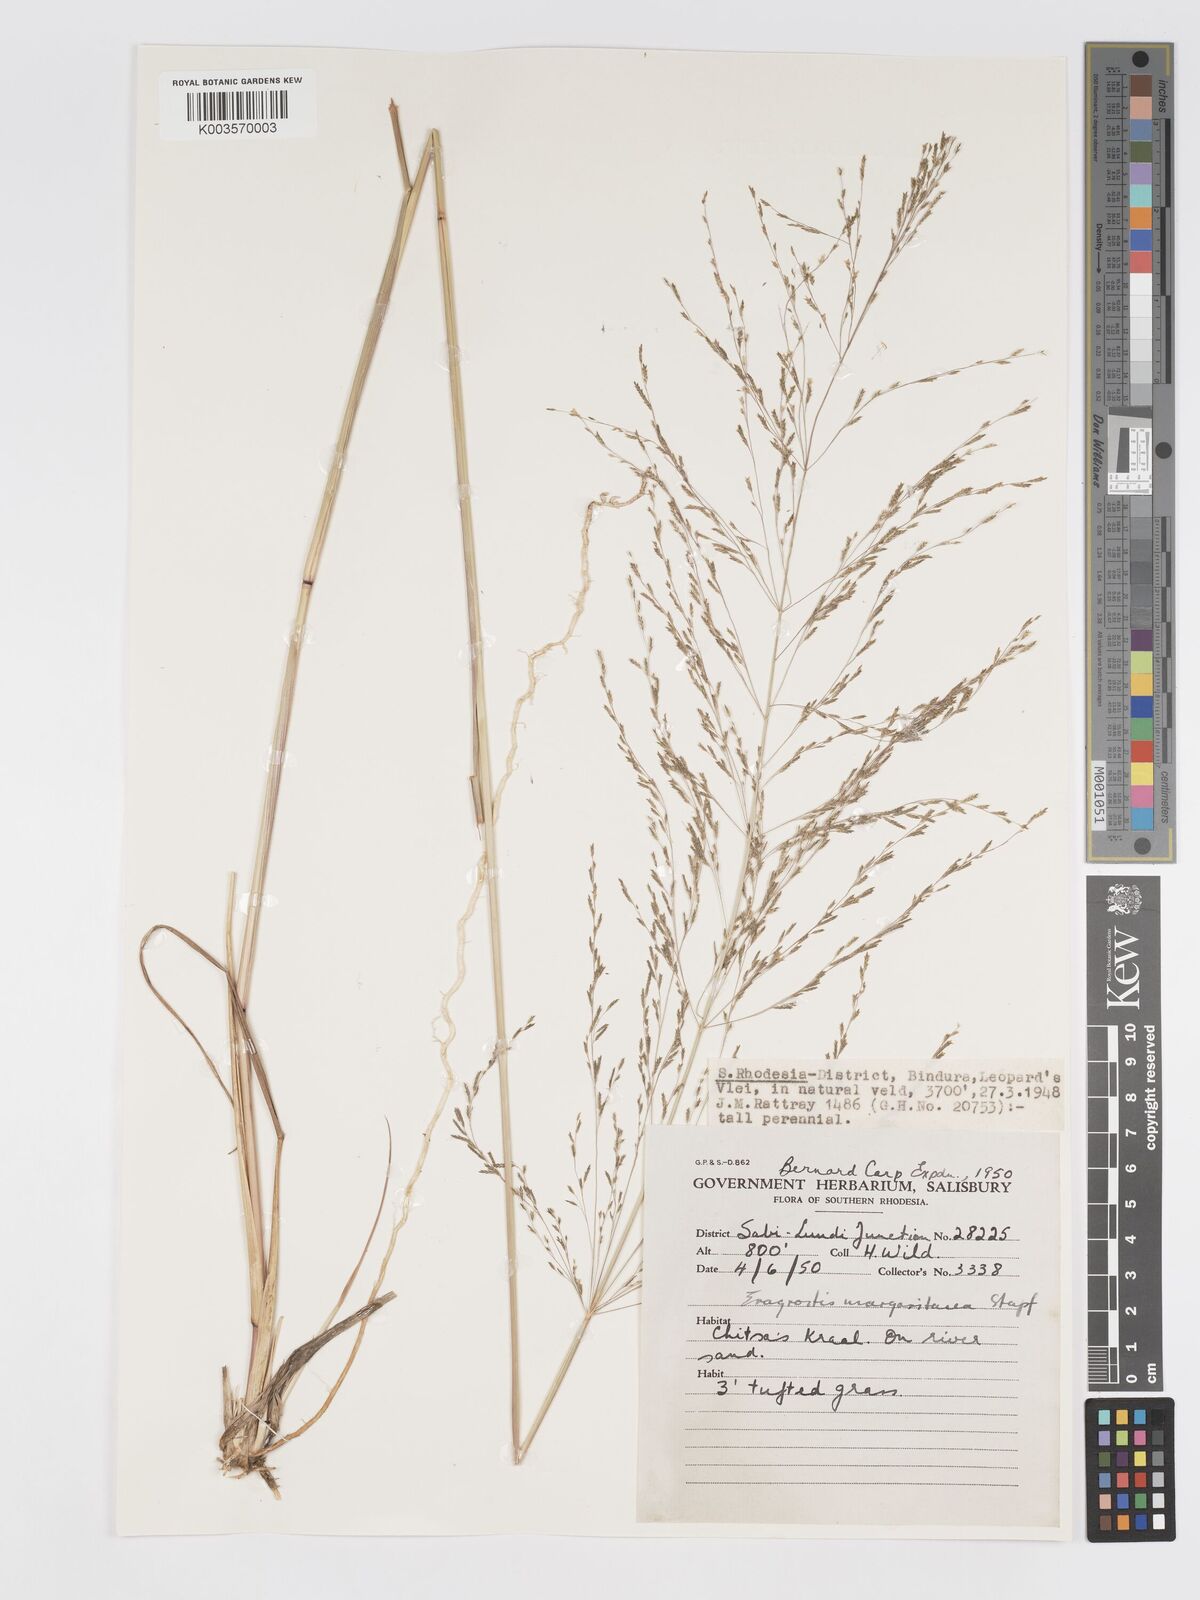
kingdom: Plantae
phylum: Tracheophyta
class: Liliopsida
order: Poales
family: Poaceae
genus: Eragrostis
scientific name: Eragrostis rotifer
